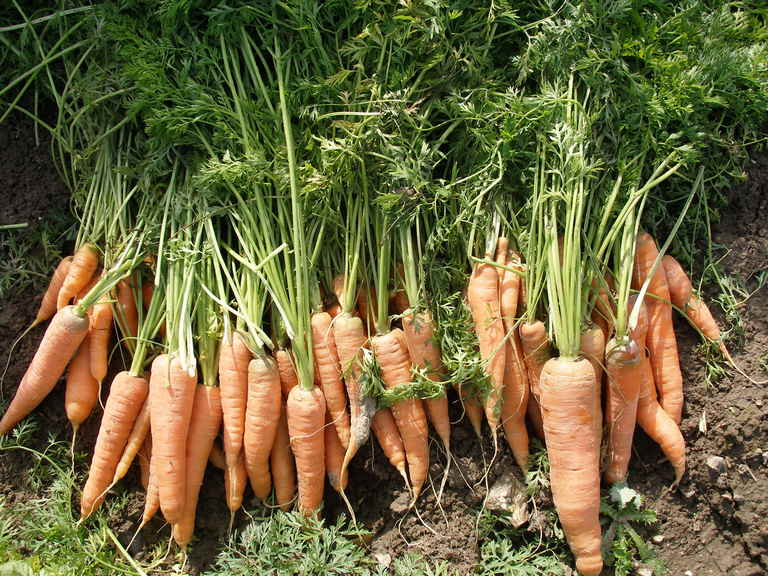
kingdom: Plantae
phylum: Tracheophyta
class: Magnoliopsida
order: Apiales
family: Apiaceae
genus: Daucus
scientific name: Daucus carota
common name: Wild carrot
